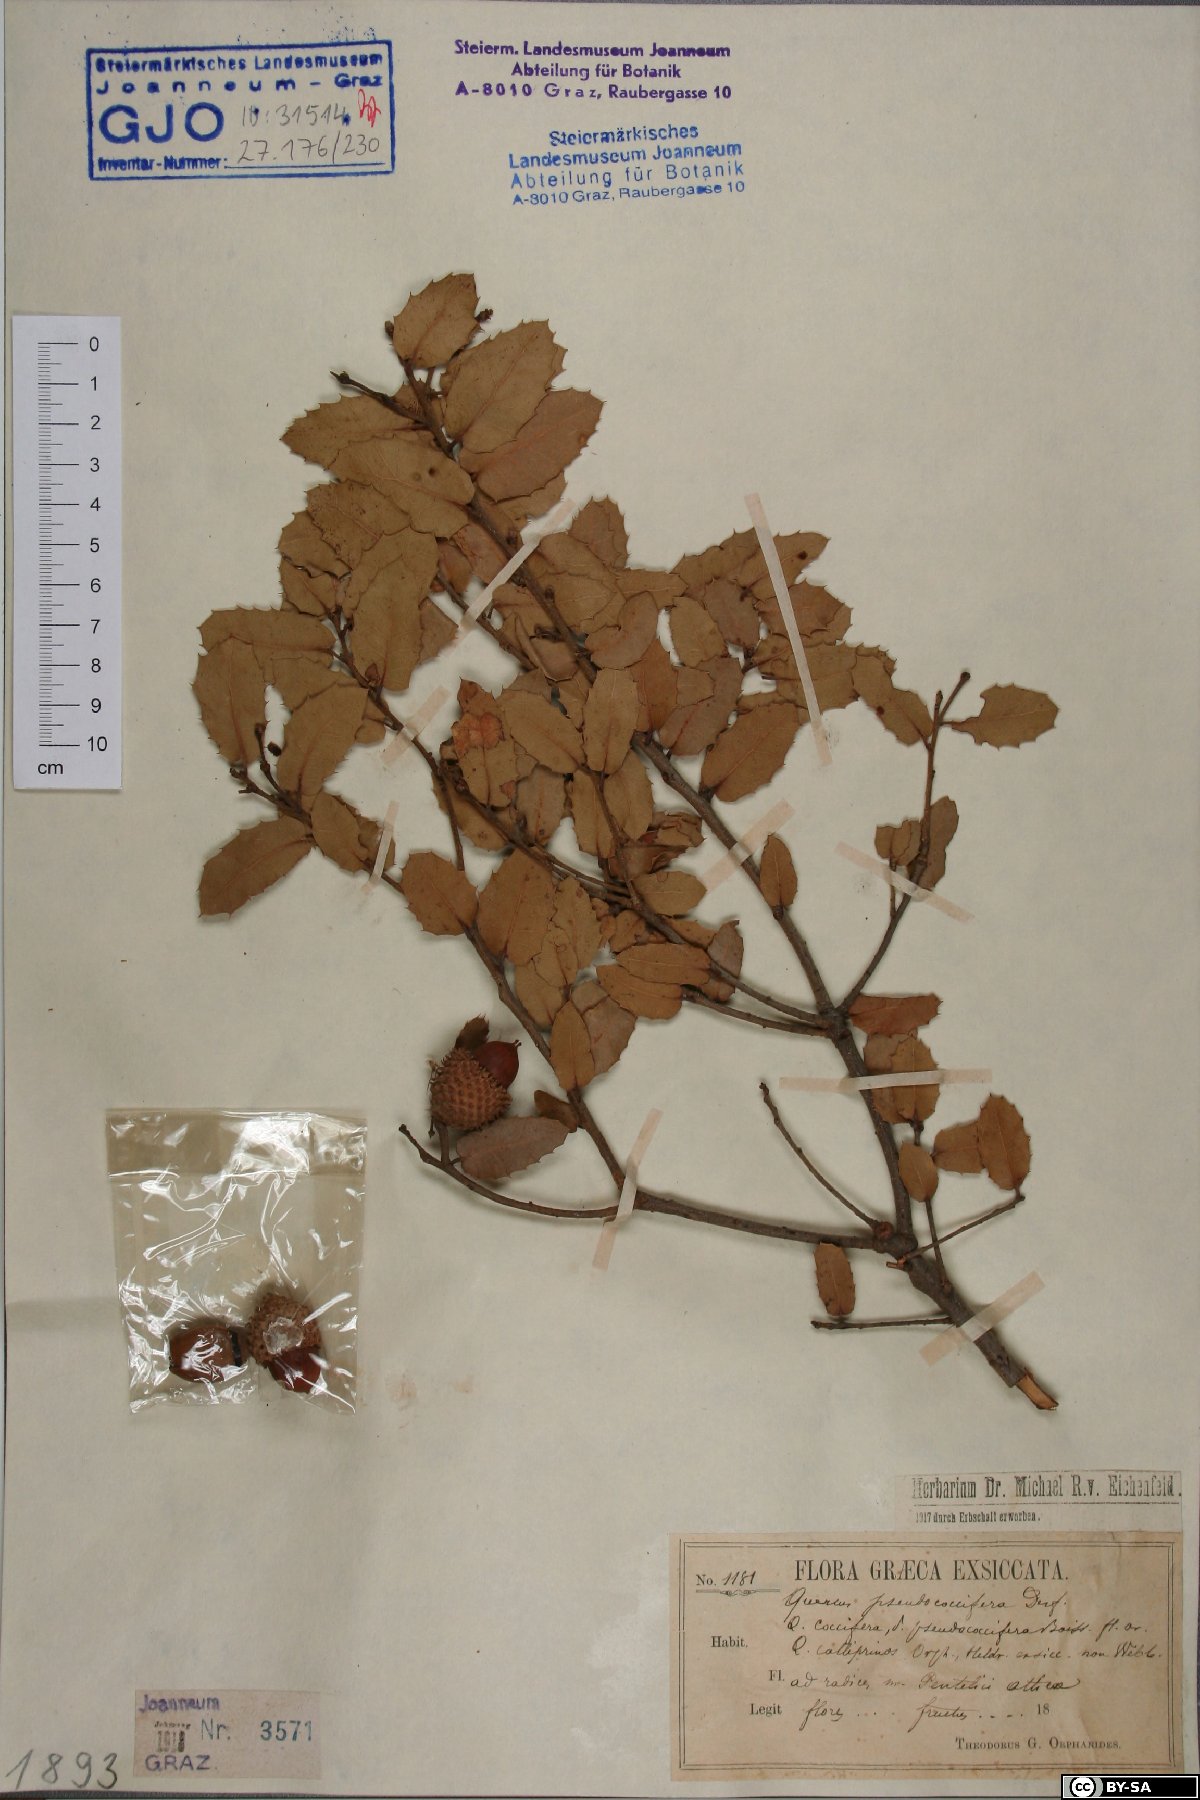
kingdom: Plantae
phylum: Tracheophyta
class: Magnoliopsida
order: Fagales
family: Fagaceae
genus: Quercus
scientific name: Quercus pseudococcifera
